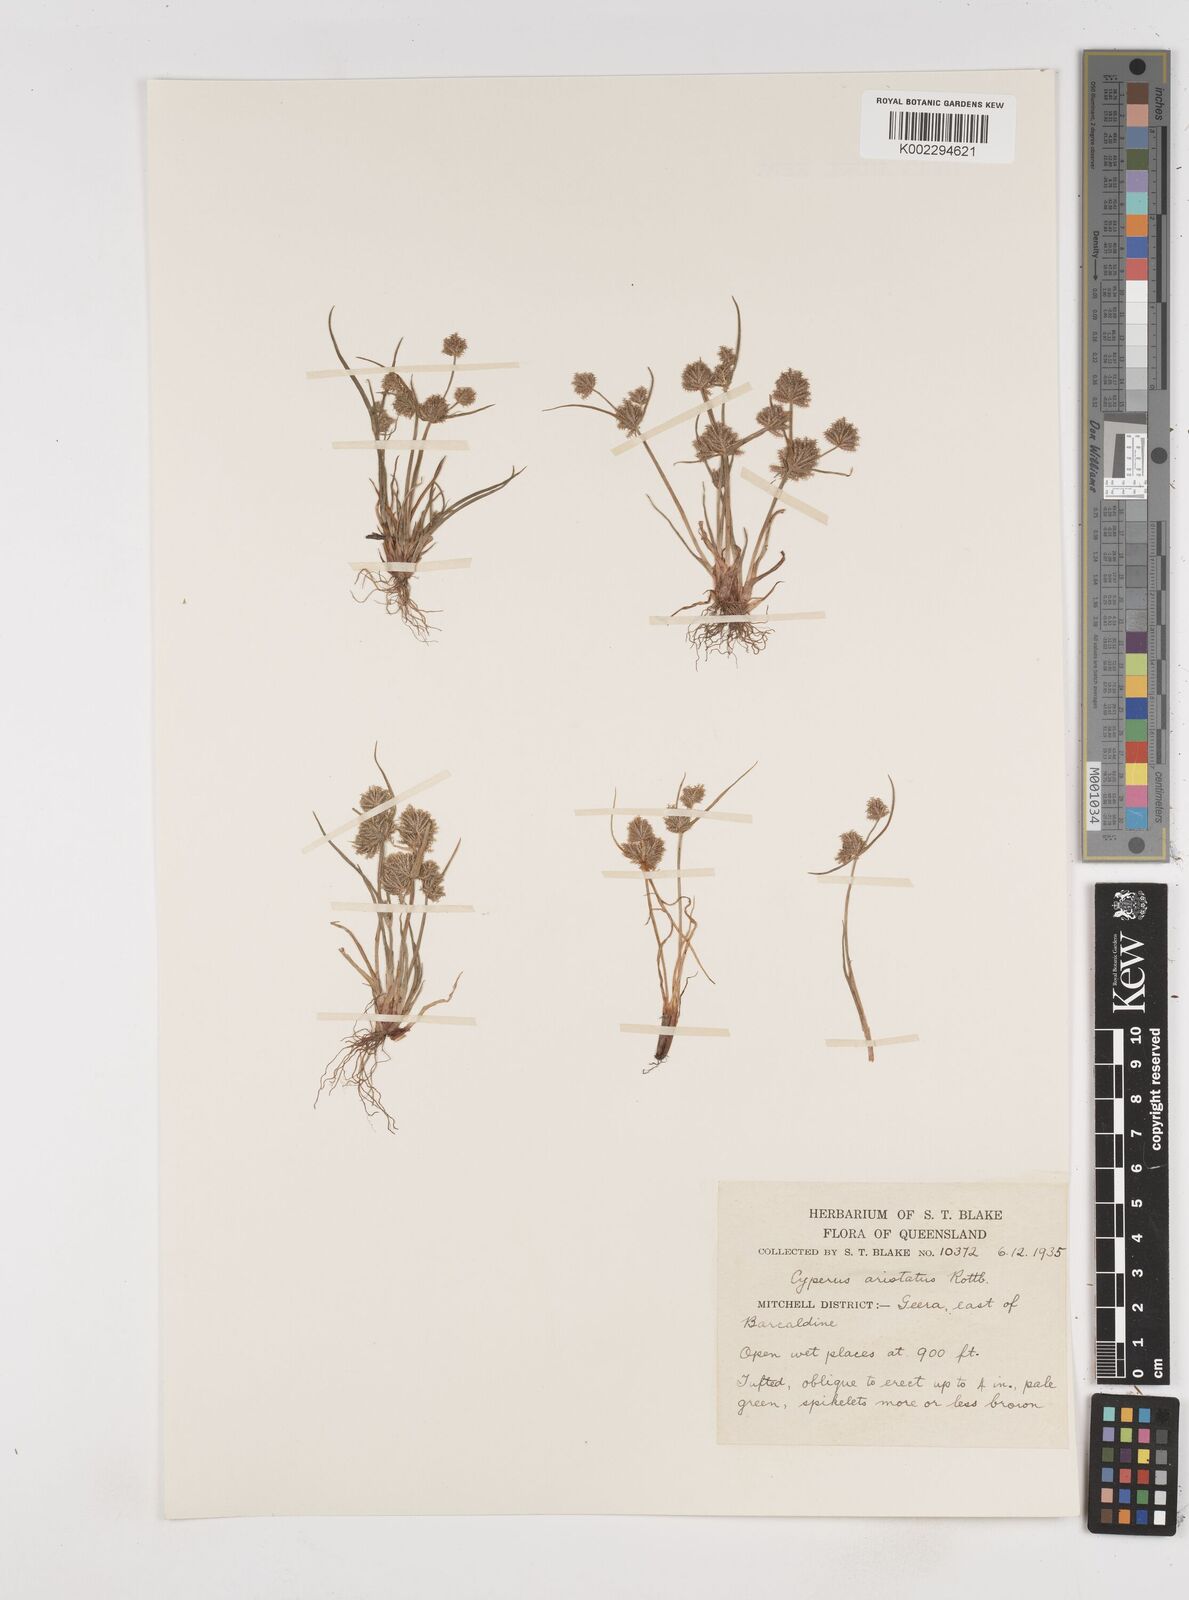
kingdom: Plantae
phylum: Tracheophyta
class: Liliopsida
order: Poales
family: Cyperaceae
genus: Cyperus
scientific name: Cyperus squarrosus
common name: Awned cyperus
